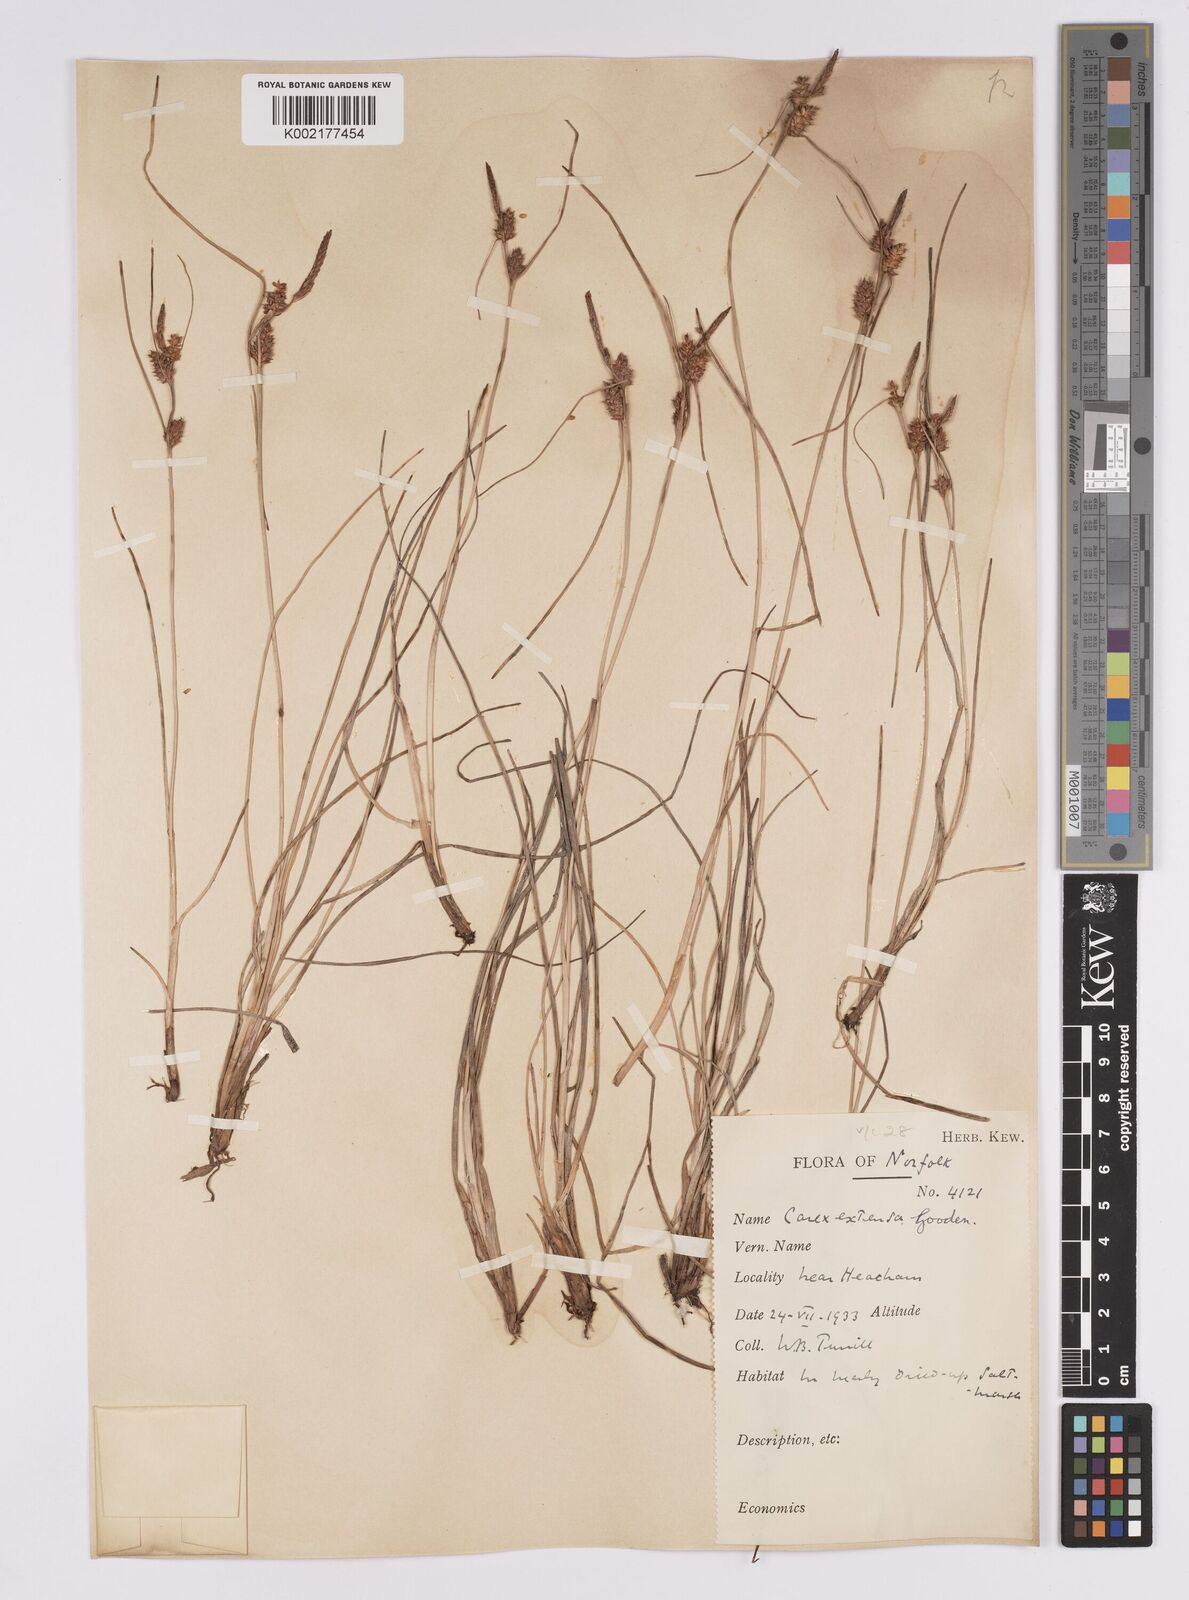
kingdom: Plantae
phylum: Tracheophyta
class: Liliopsida
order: Poales
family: Cyperaceae
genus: Carex
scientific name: Carex extensa
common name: Long-bracted sedge
